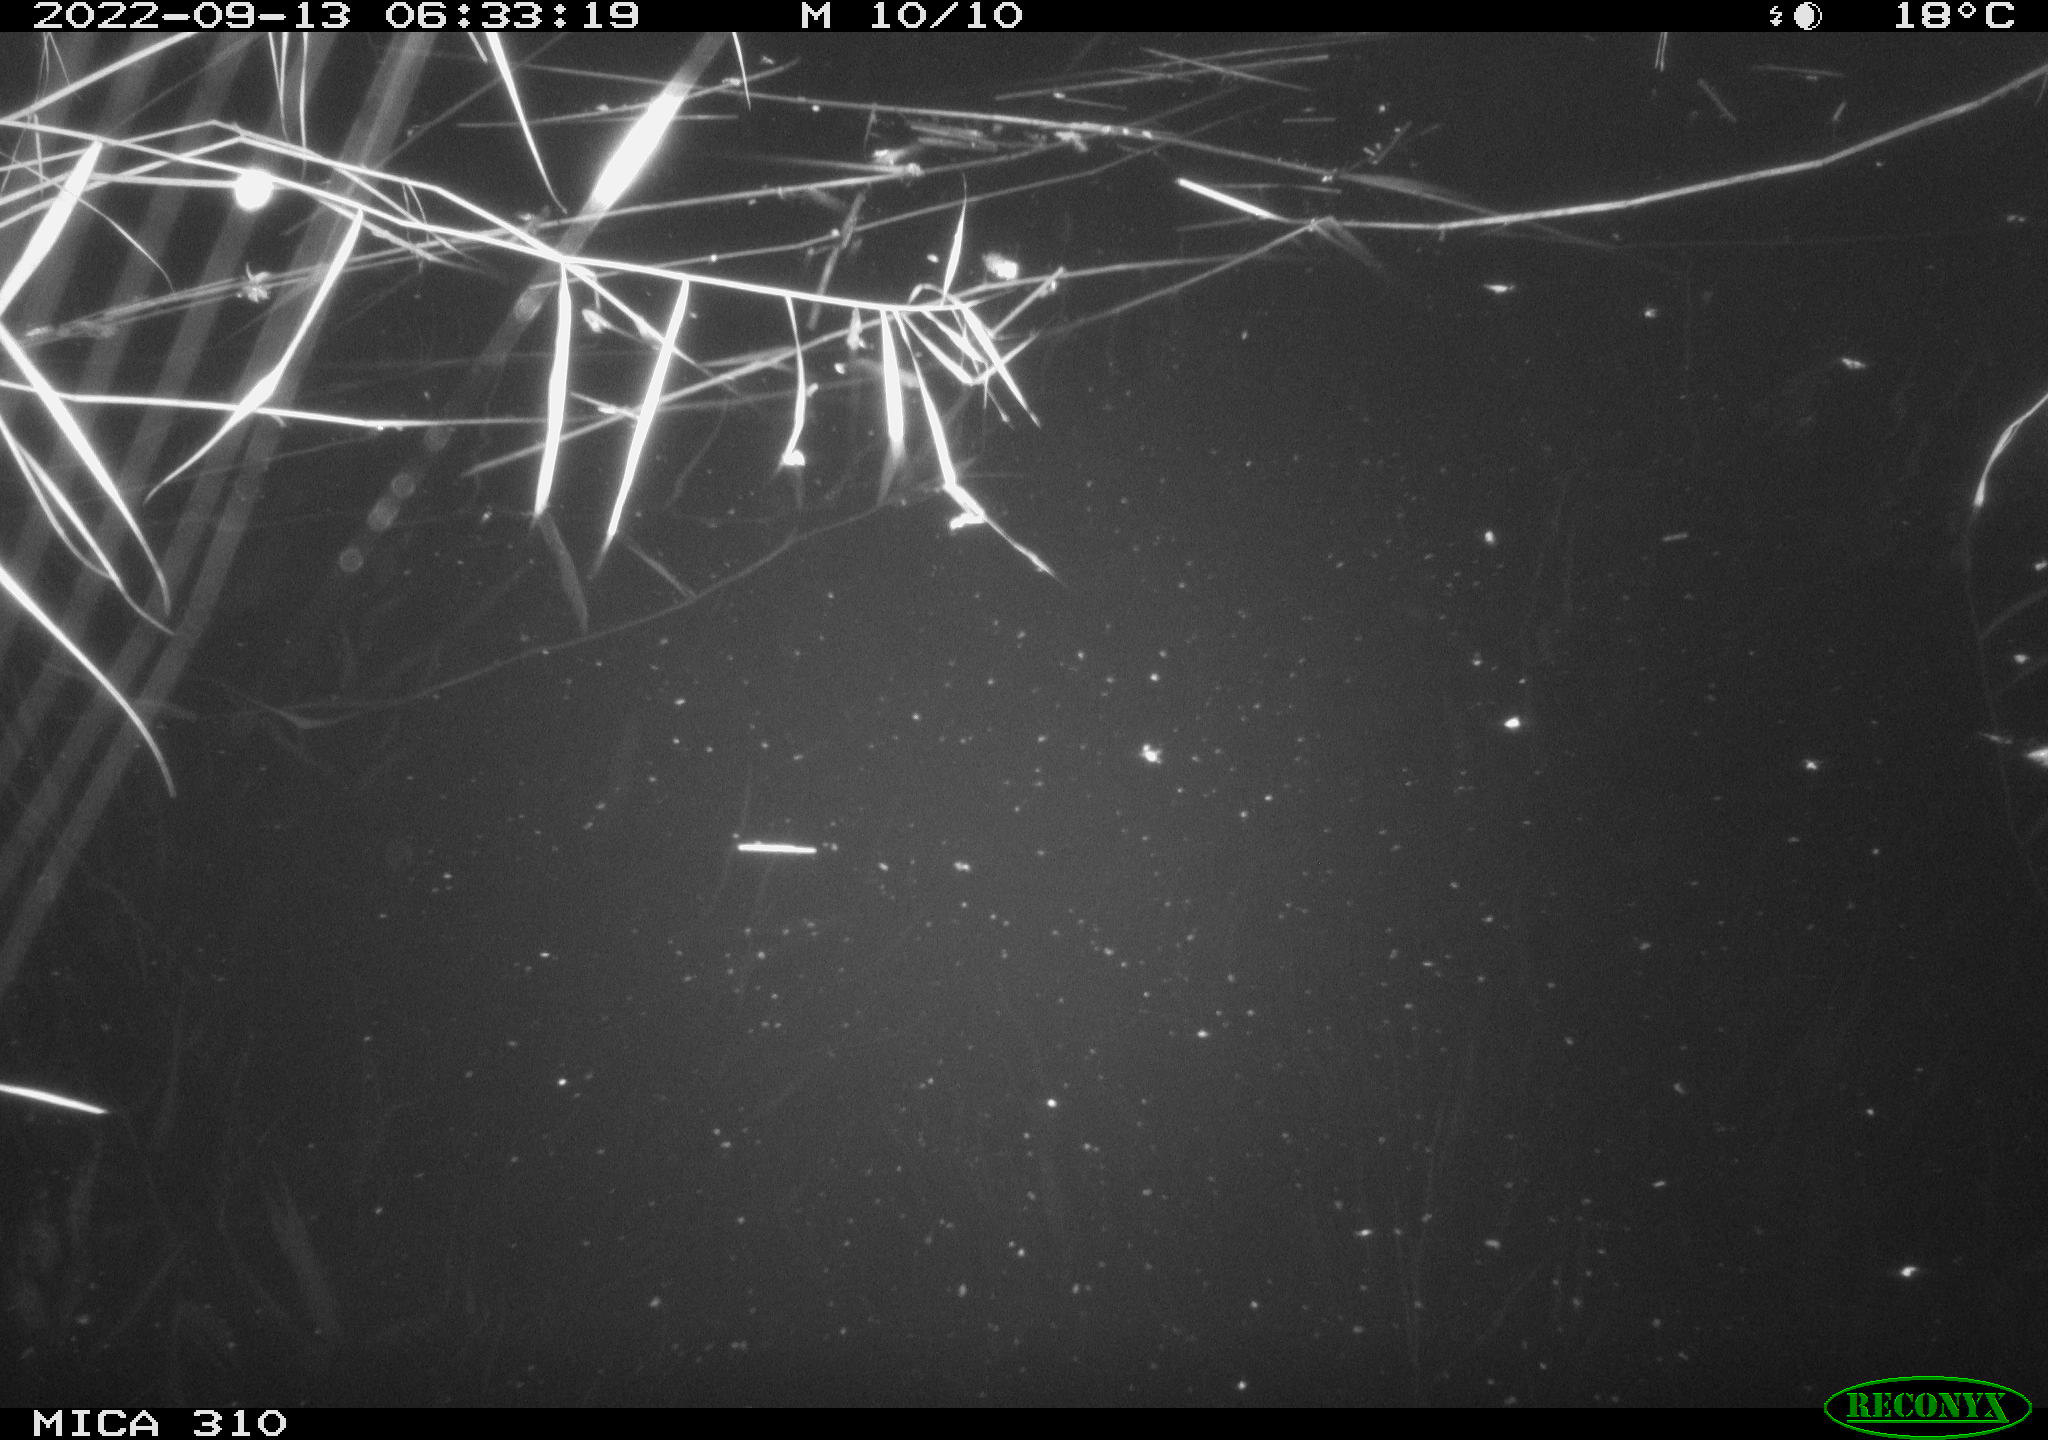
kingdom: Animalia
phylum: Chordata
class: Aves
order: Gruiformes
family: Rallidae
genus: Fulica
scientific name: Fulica atra
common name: Eurasian coot
